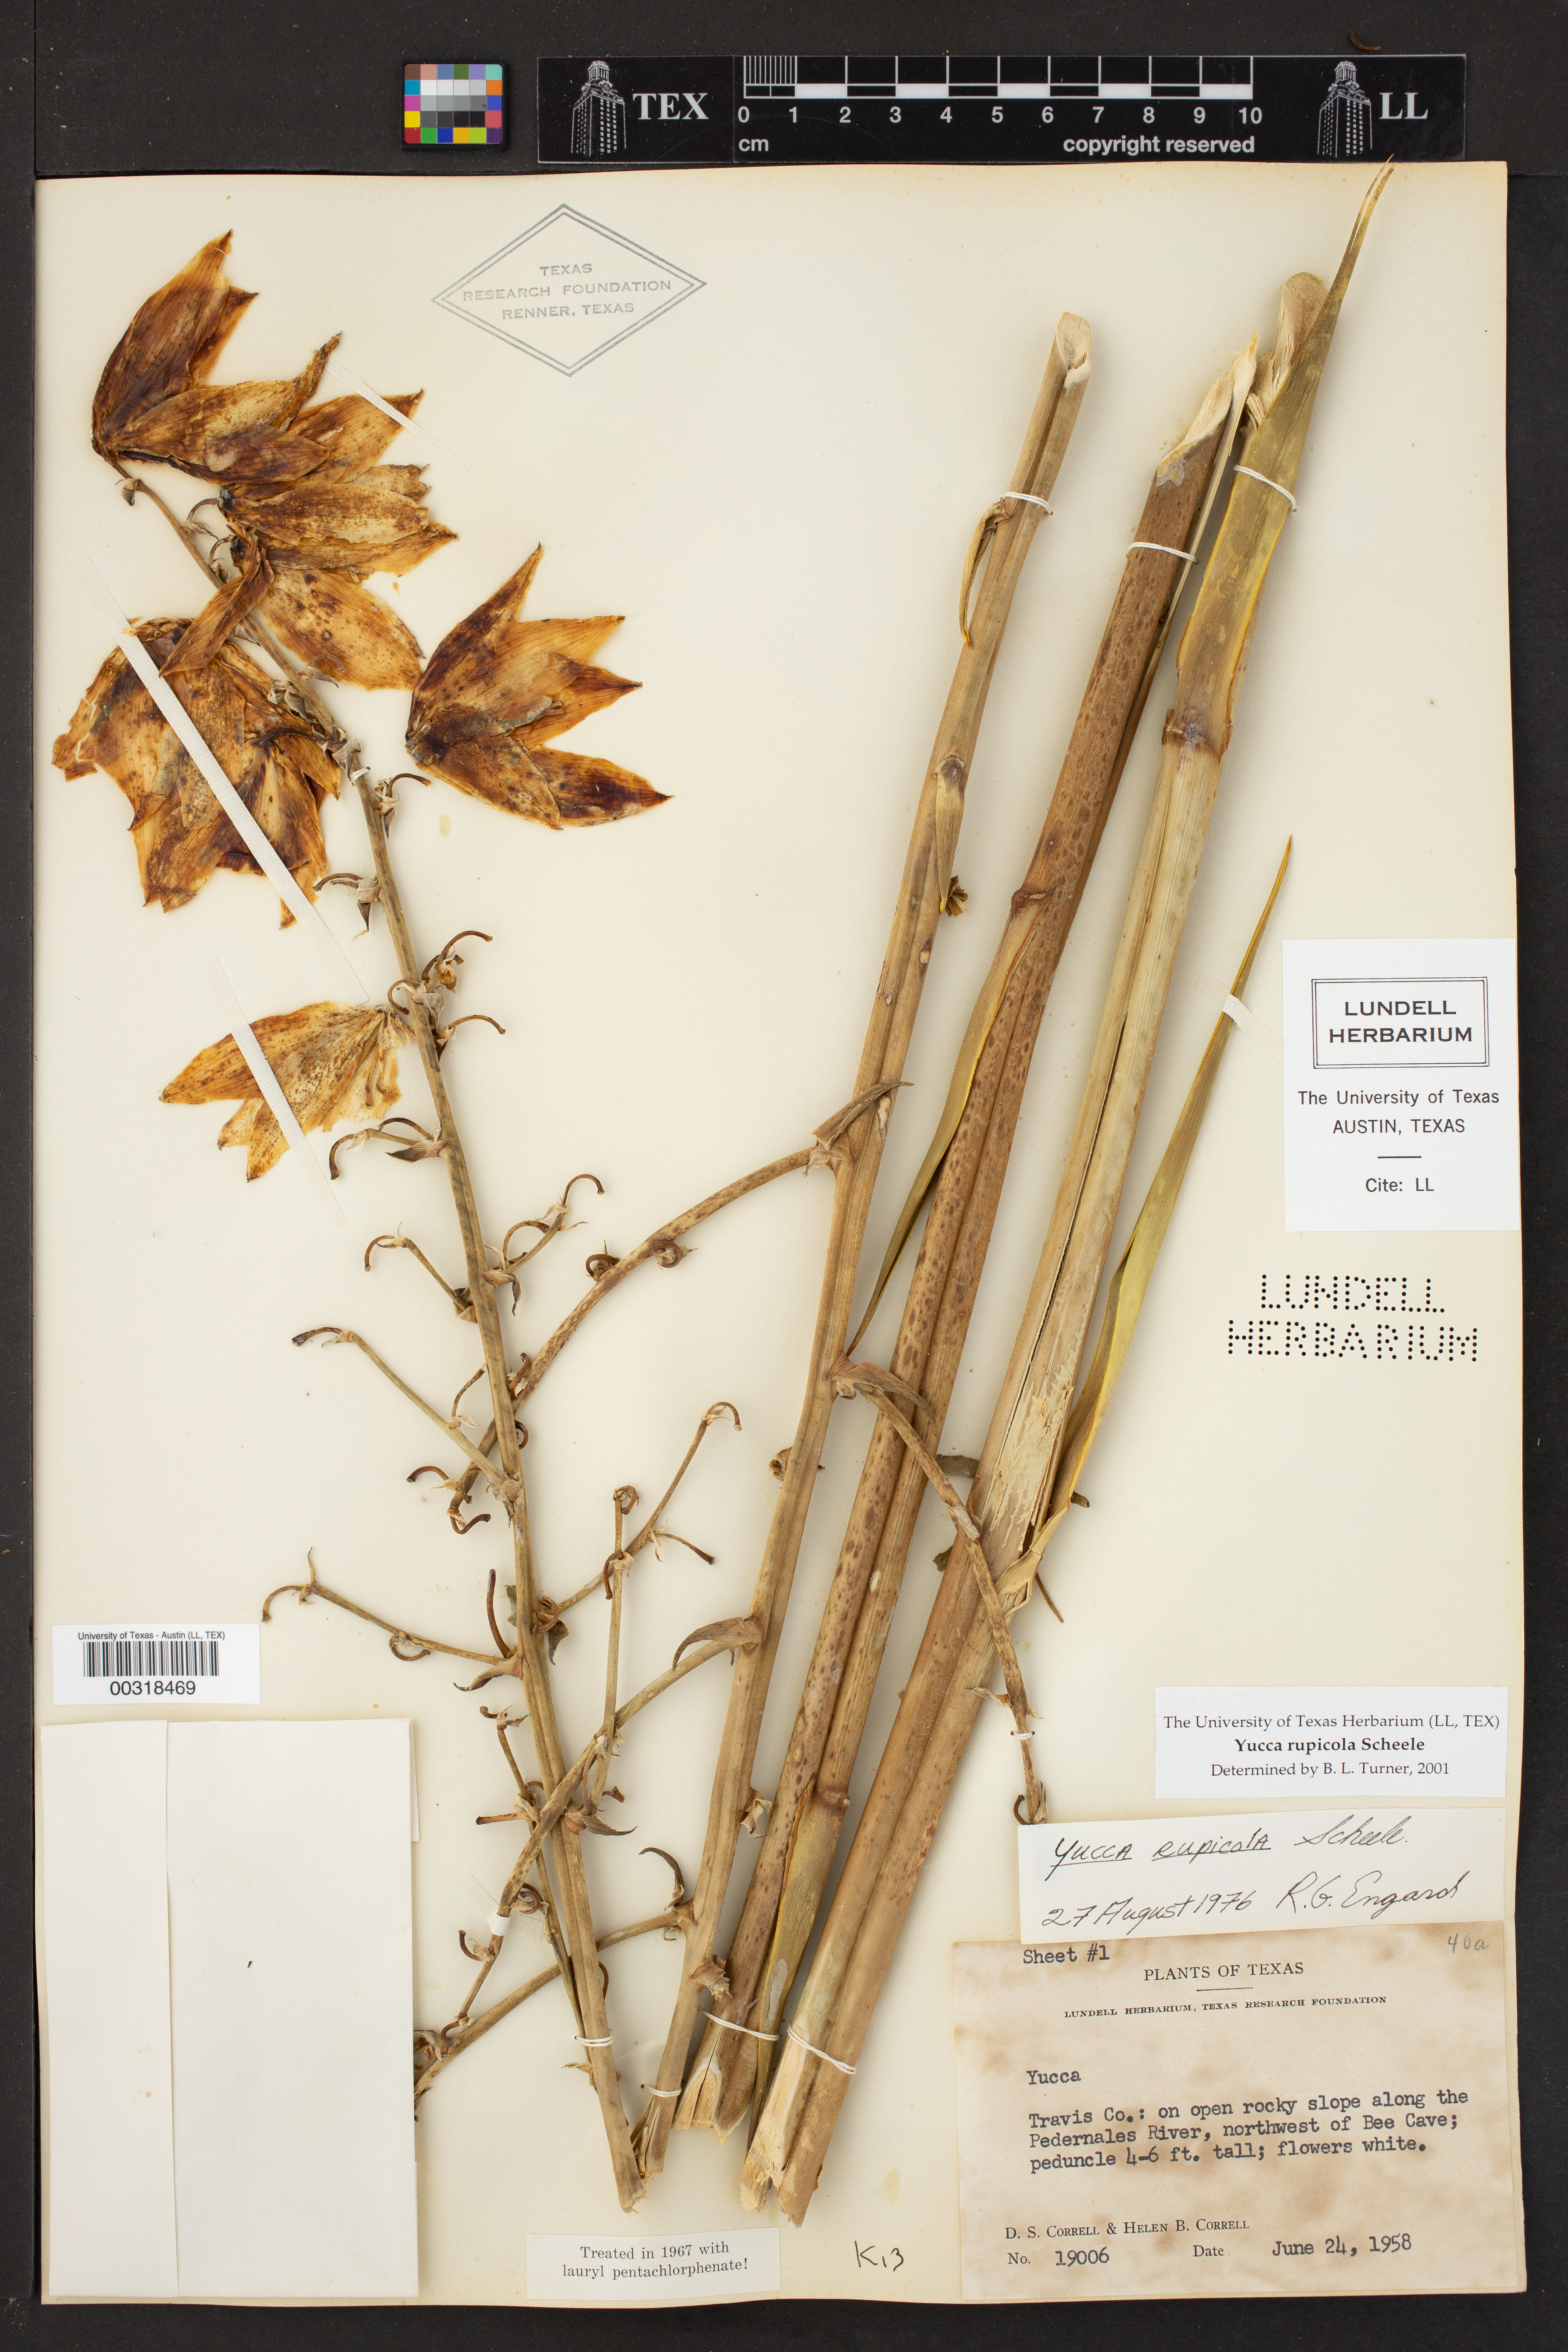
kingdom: Plantae
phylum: Tracheophyta
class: Liliopsida
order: Asparagales
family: Asparagaceae
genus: Yucca
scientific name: Yucca rupicola
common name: Twisted-leaf spanish-dagger
